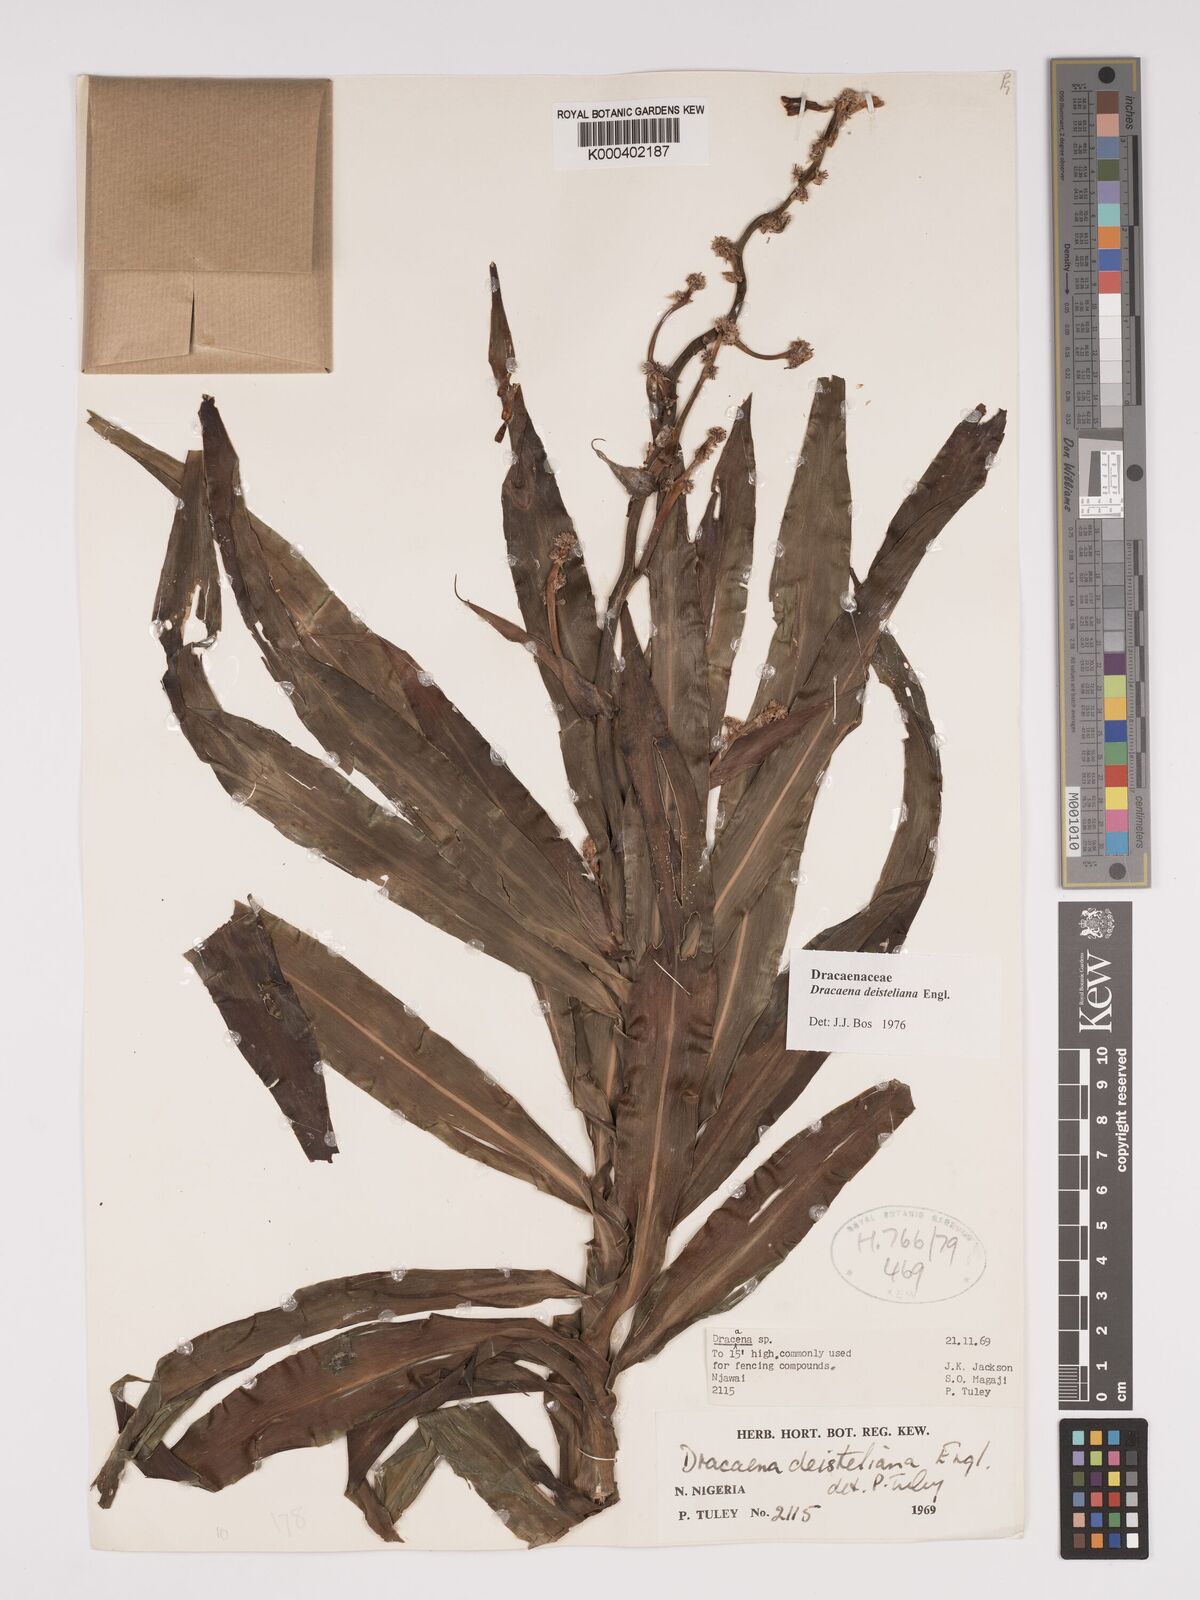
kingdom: Plantae
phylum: Tracheophyta
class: Liliopsida
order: Asparagales
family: Asparagaceae
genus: Dracaena
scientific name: Dracaena fragrans
